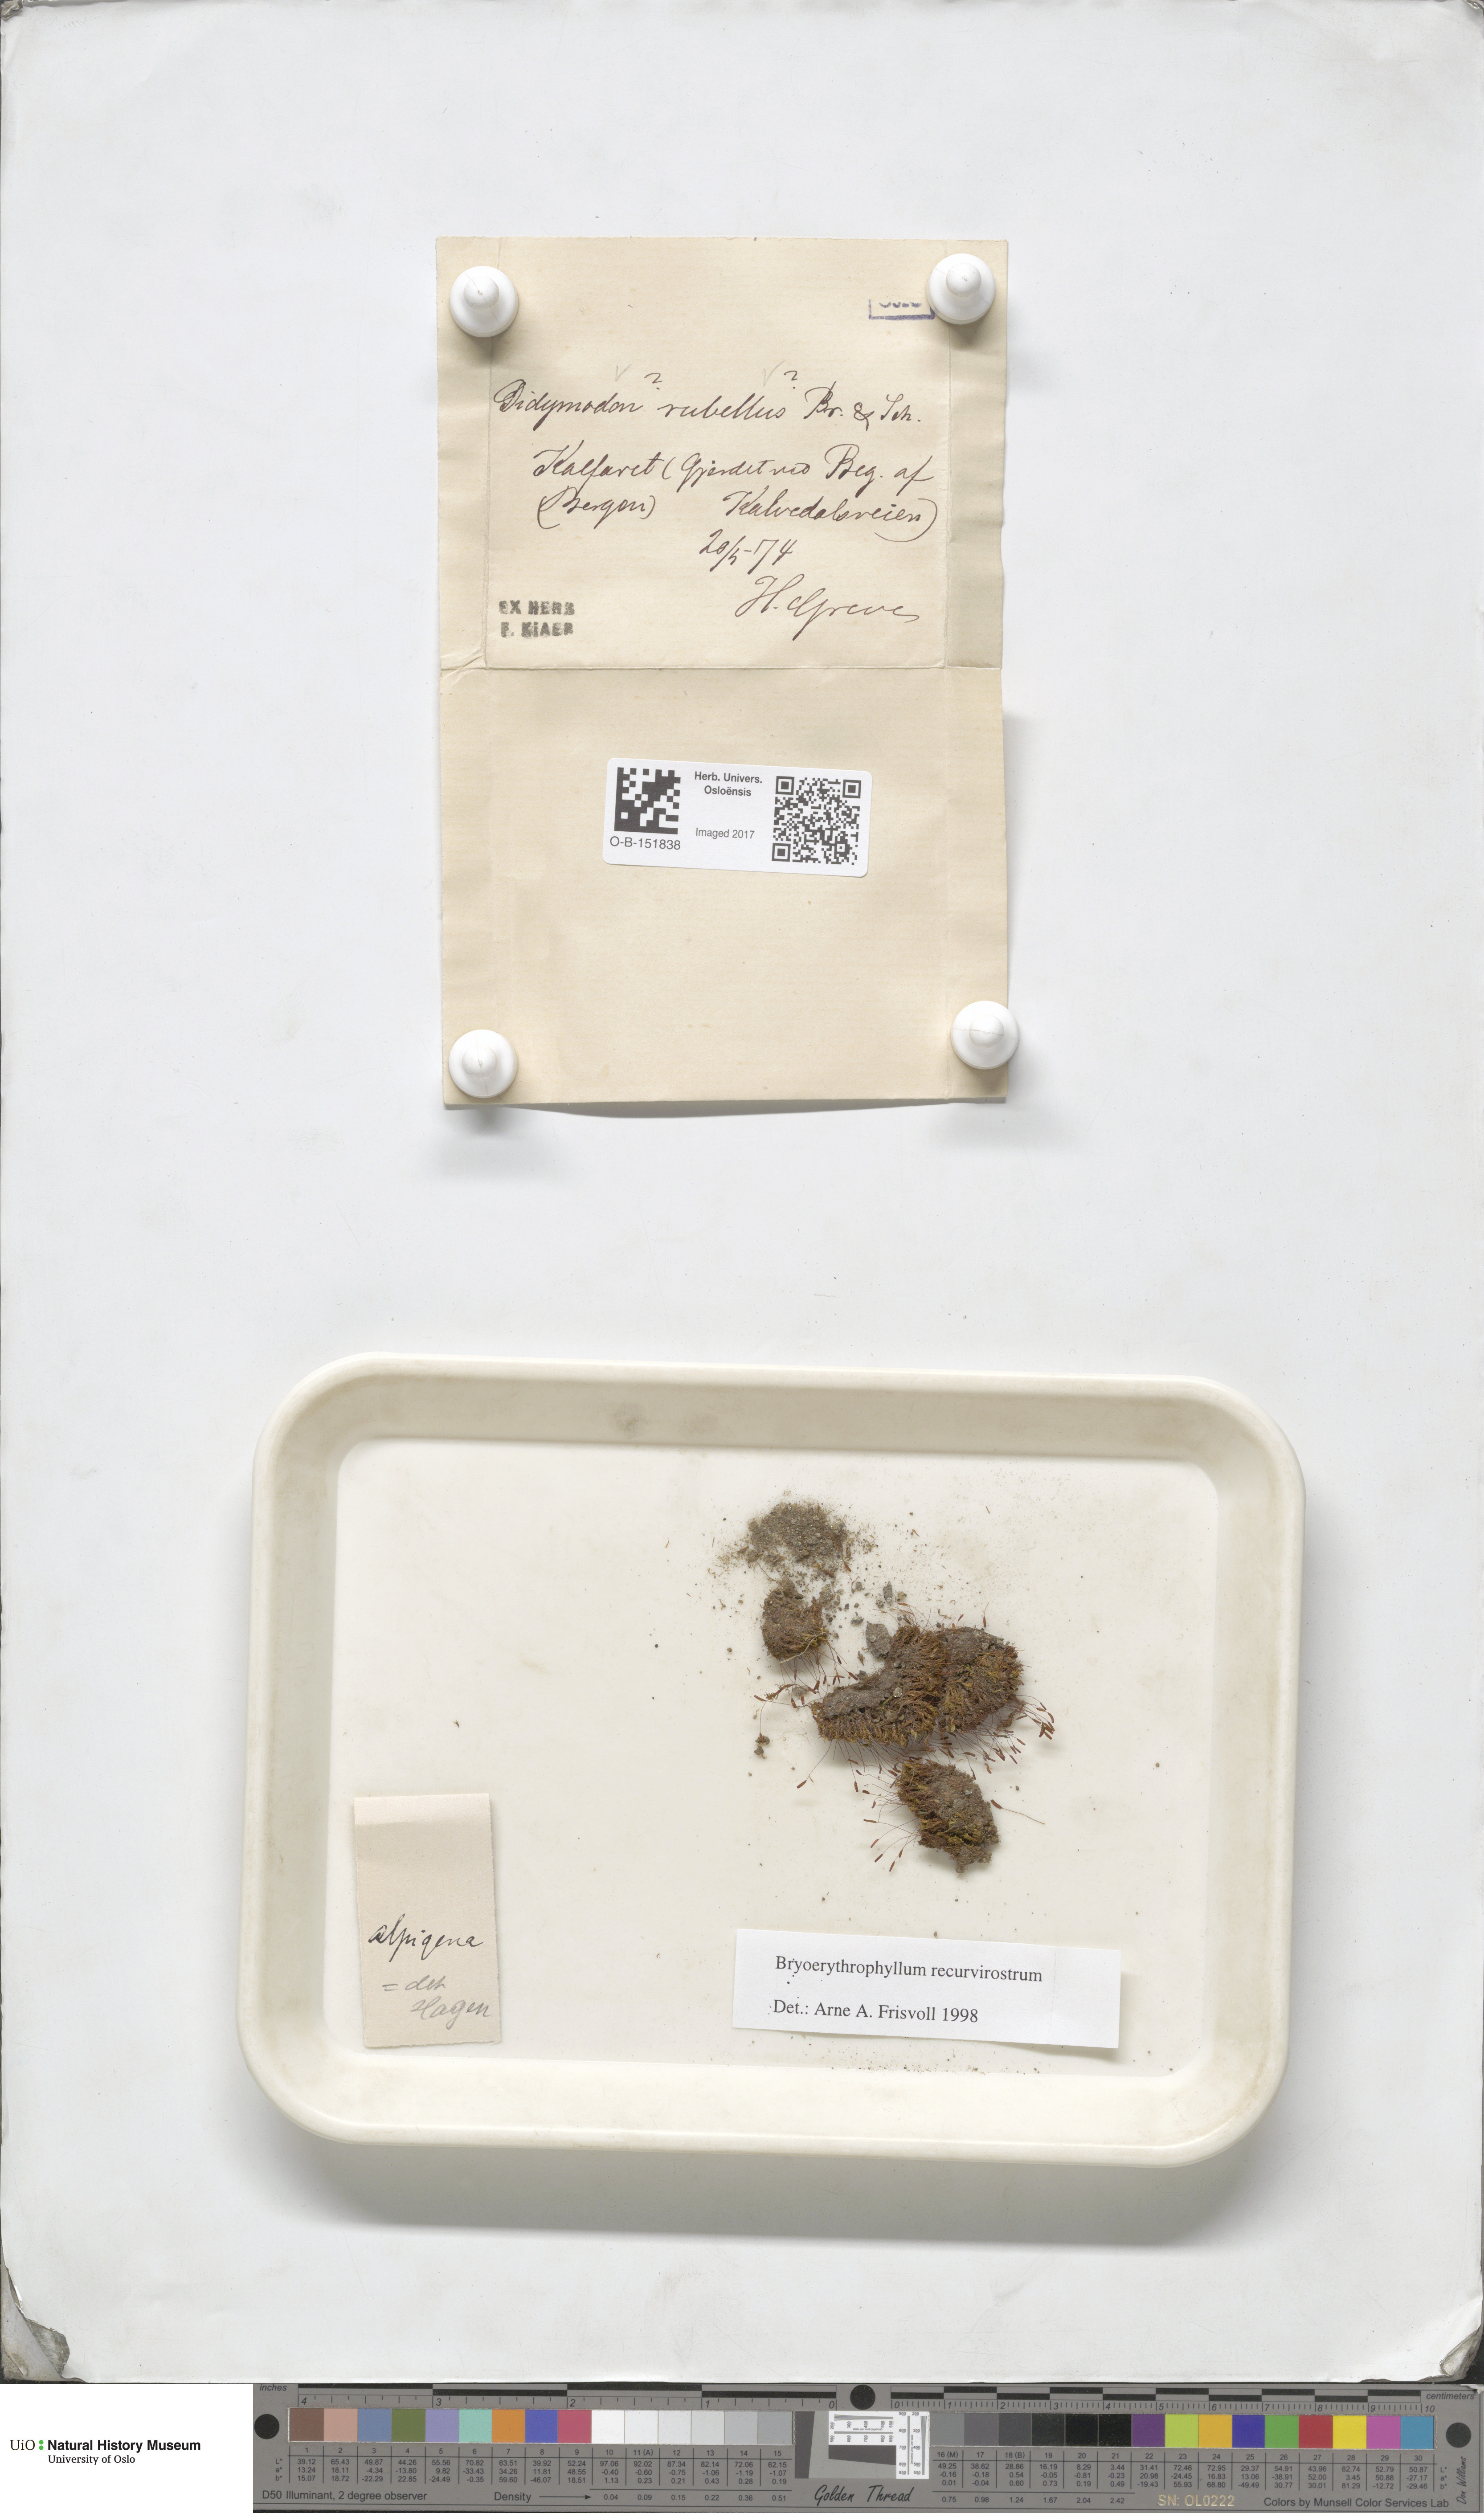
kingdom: Plantae
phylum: Bryophyta
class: Bryopsida
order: Pottiales
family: Pottiaceae
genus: Bryoerythrophyllum
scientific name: Bryoerythrophyllum recurvirostrum
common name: Red beard moss
